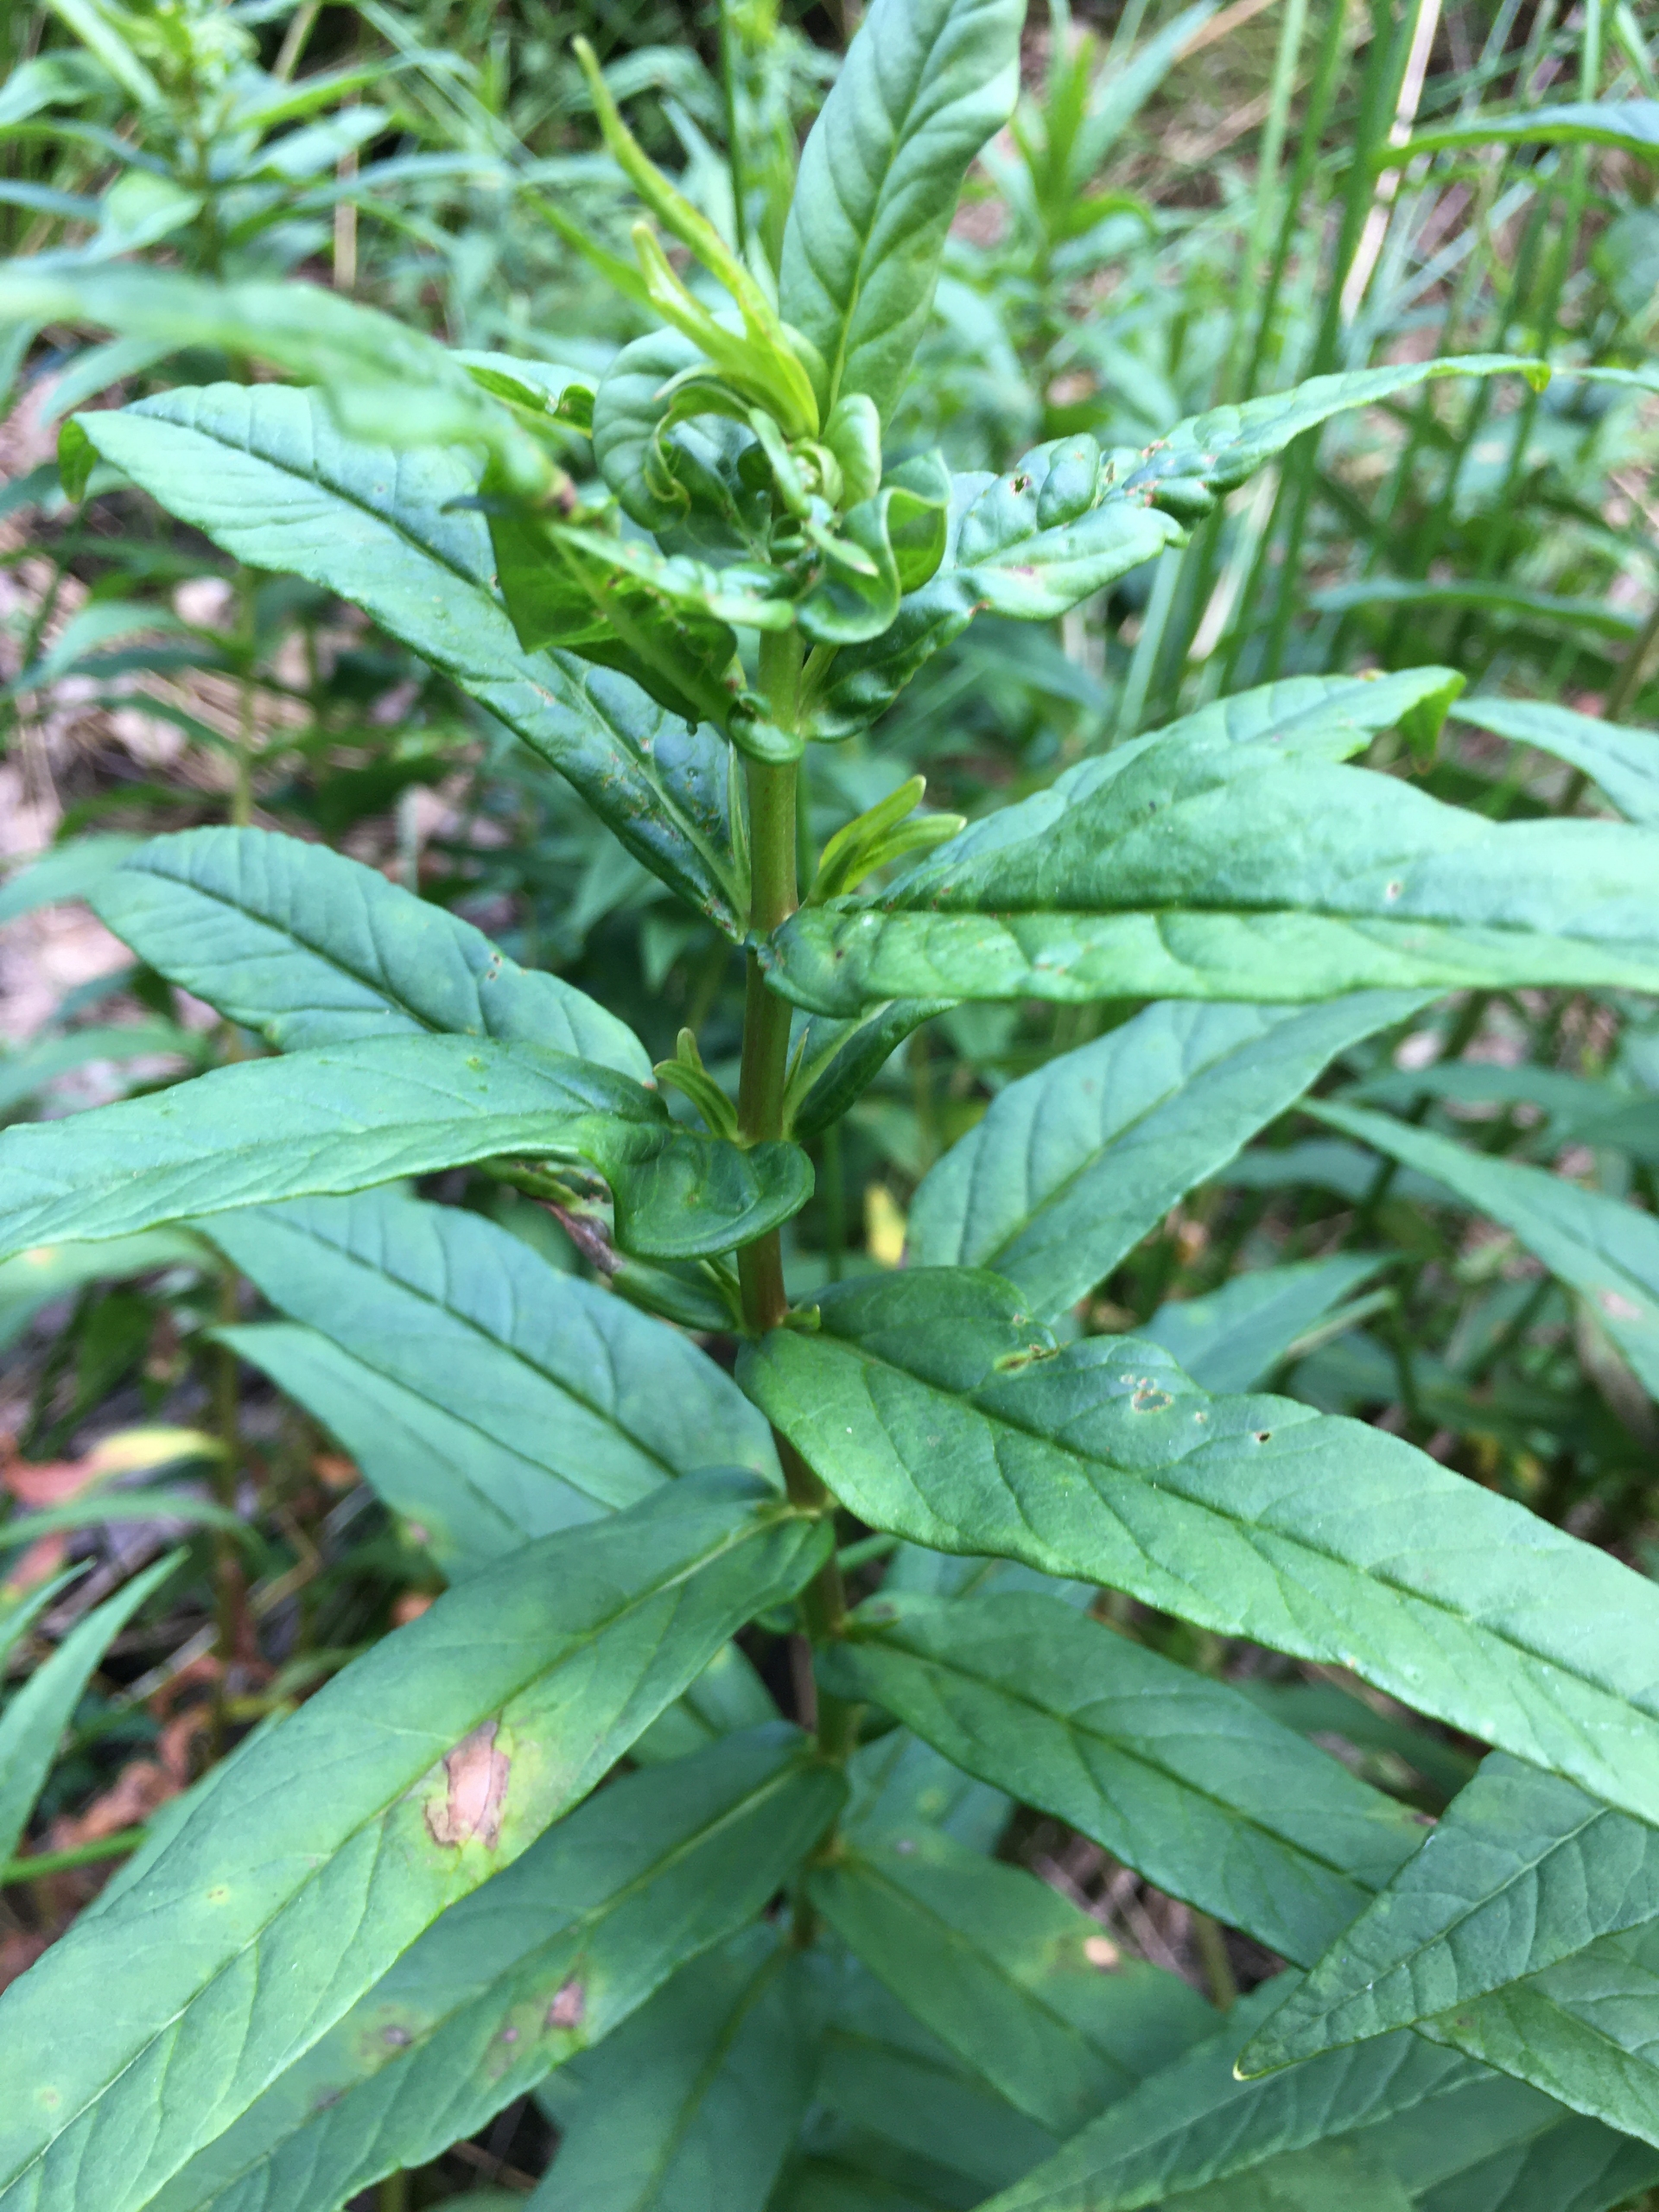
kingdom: Plantae
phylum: Tracheophyta
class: Magnoliopsida
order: Ericales
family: Primulaceae
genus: Lysimachia
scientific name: Lysimachia thyrsiflora
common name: Dusk-fredløs
